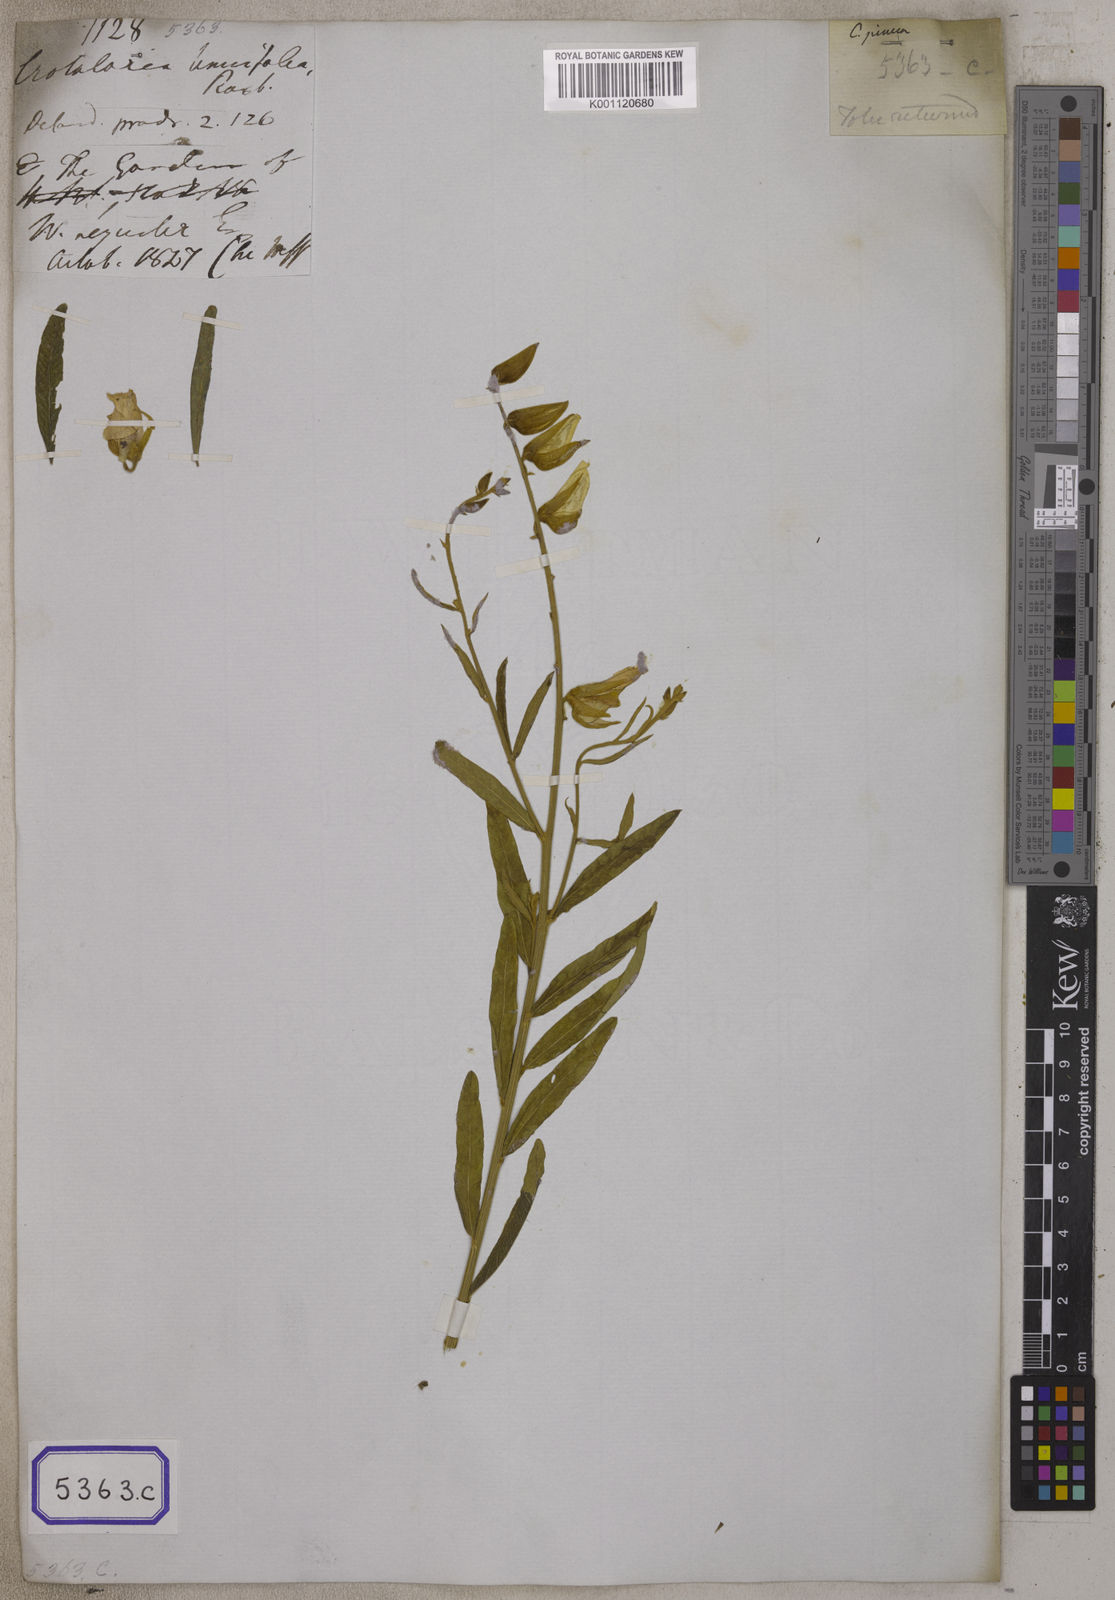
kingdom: Plantae
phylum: Tracheophyta
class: Magnoliopsida
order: Fabales
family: Fabaceae
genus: Crotalaria
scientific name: Crotalaria juncea
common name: Sunn hemp
